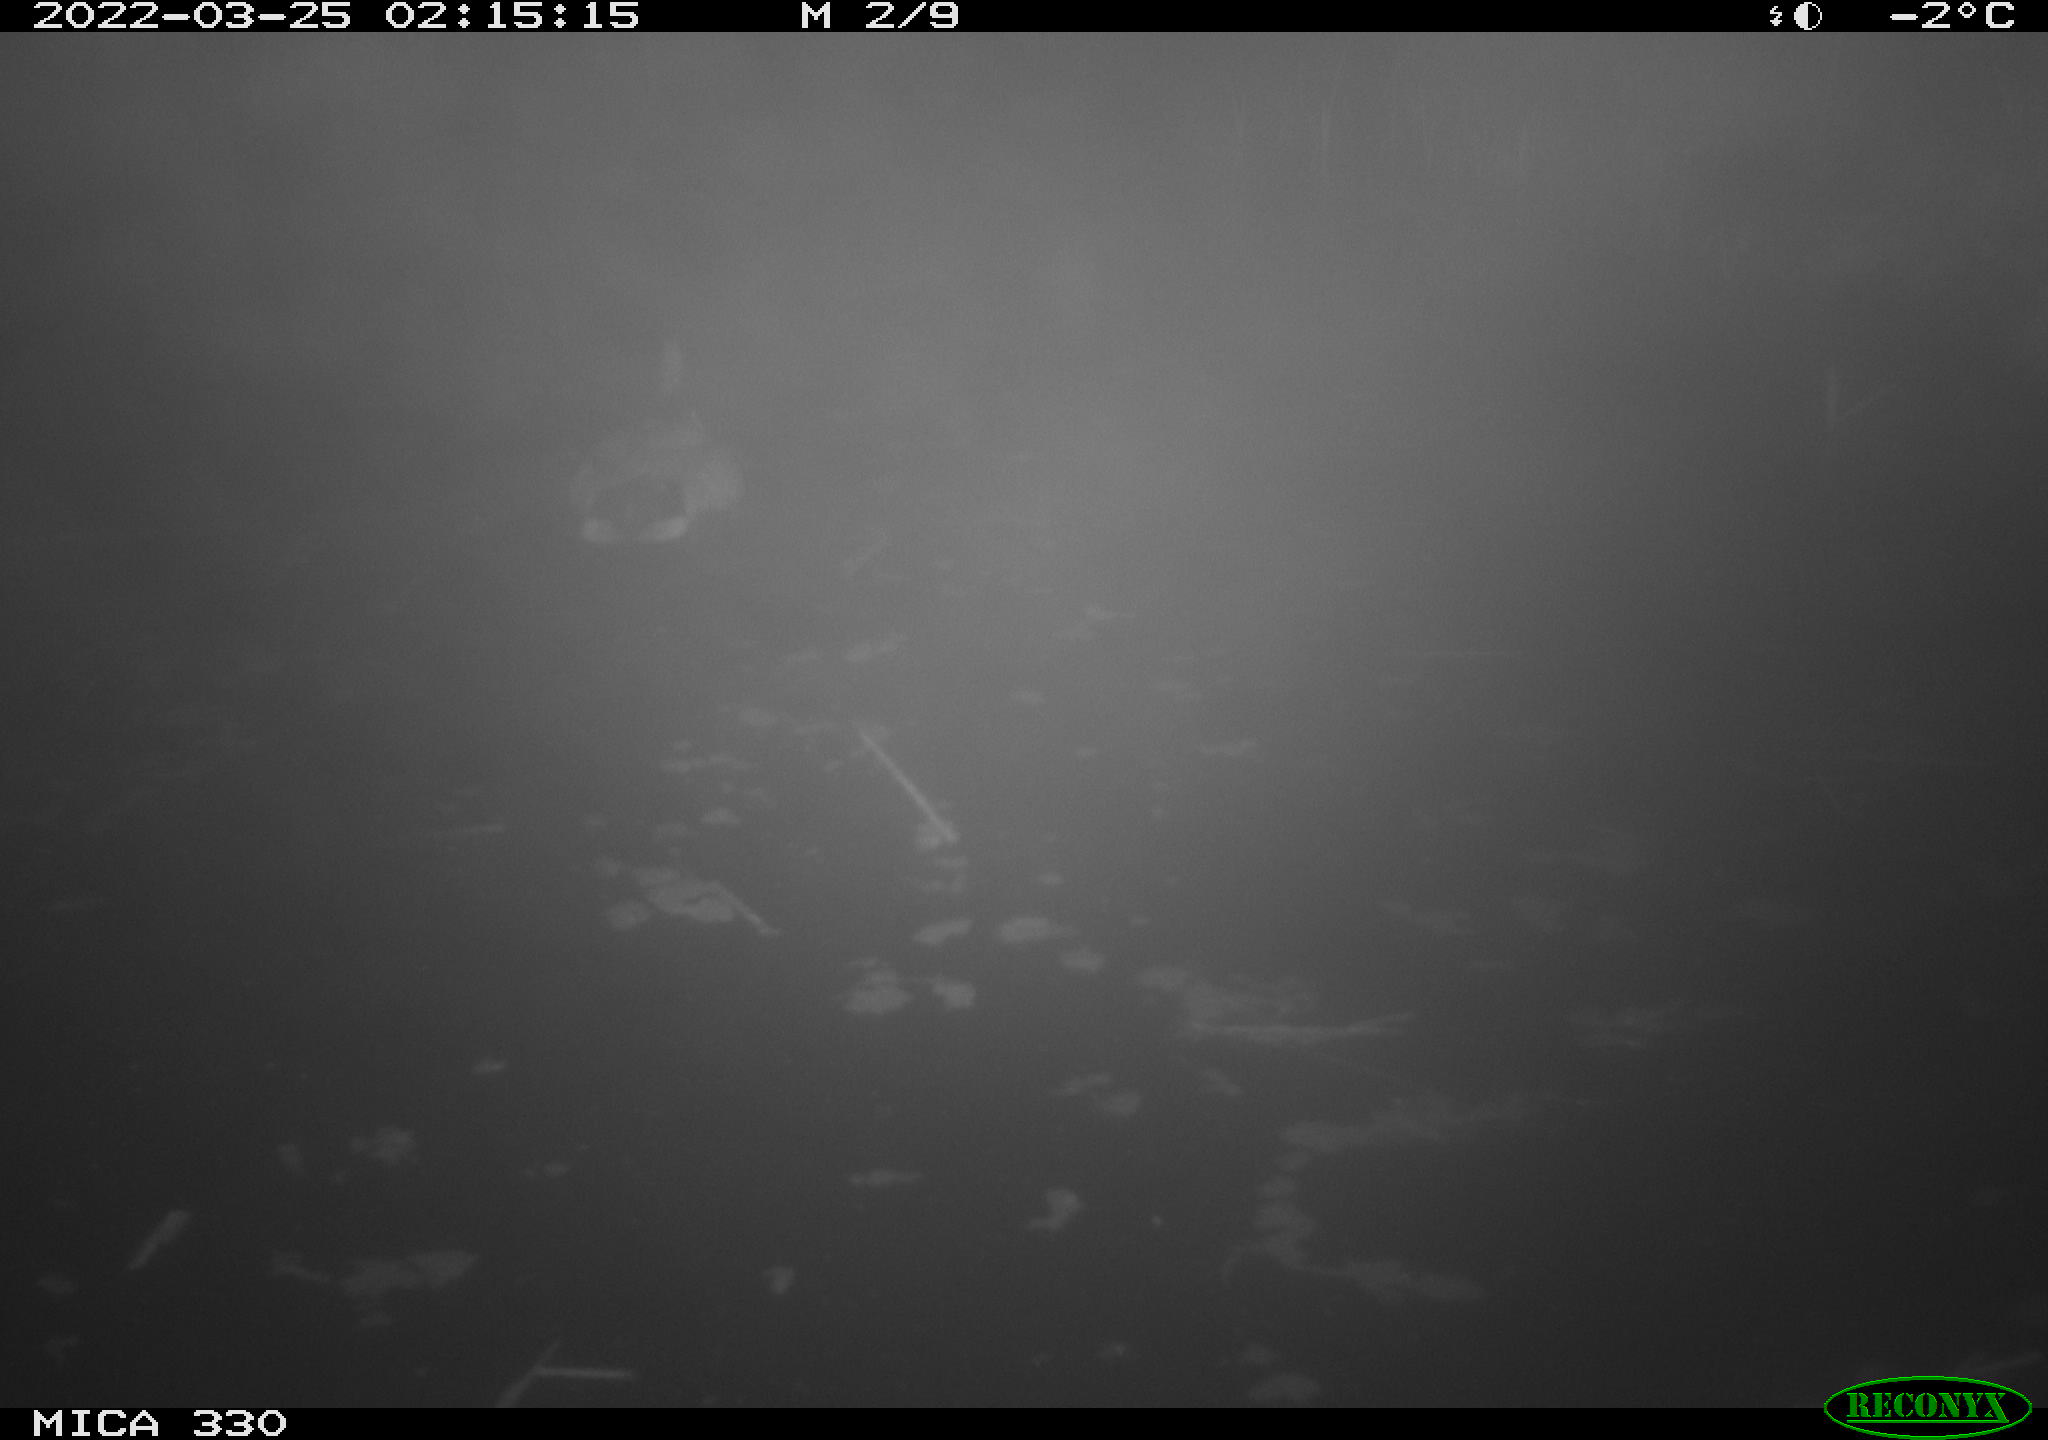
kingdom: Animalia
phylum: Chordata
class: Aves
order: Anseriformes
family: Anatidae
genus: Anas
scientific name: Anas platyrhynchos
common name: Mallard
